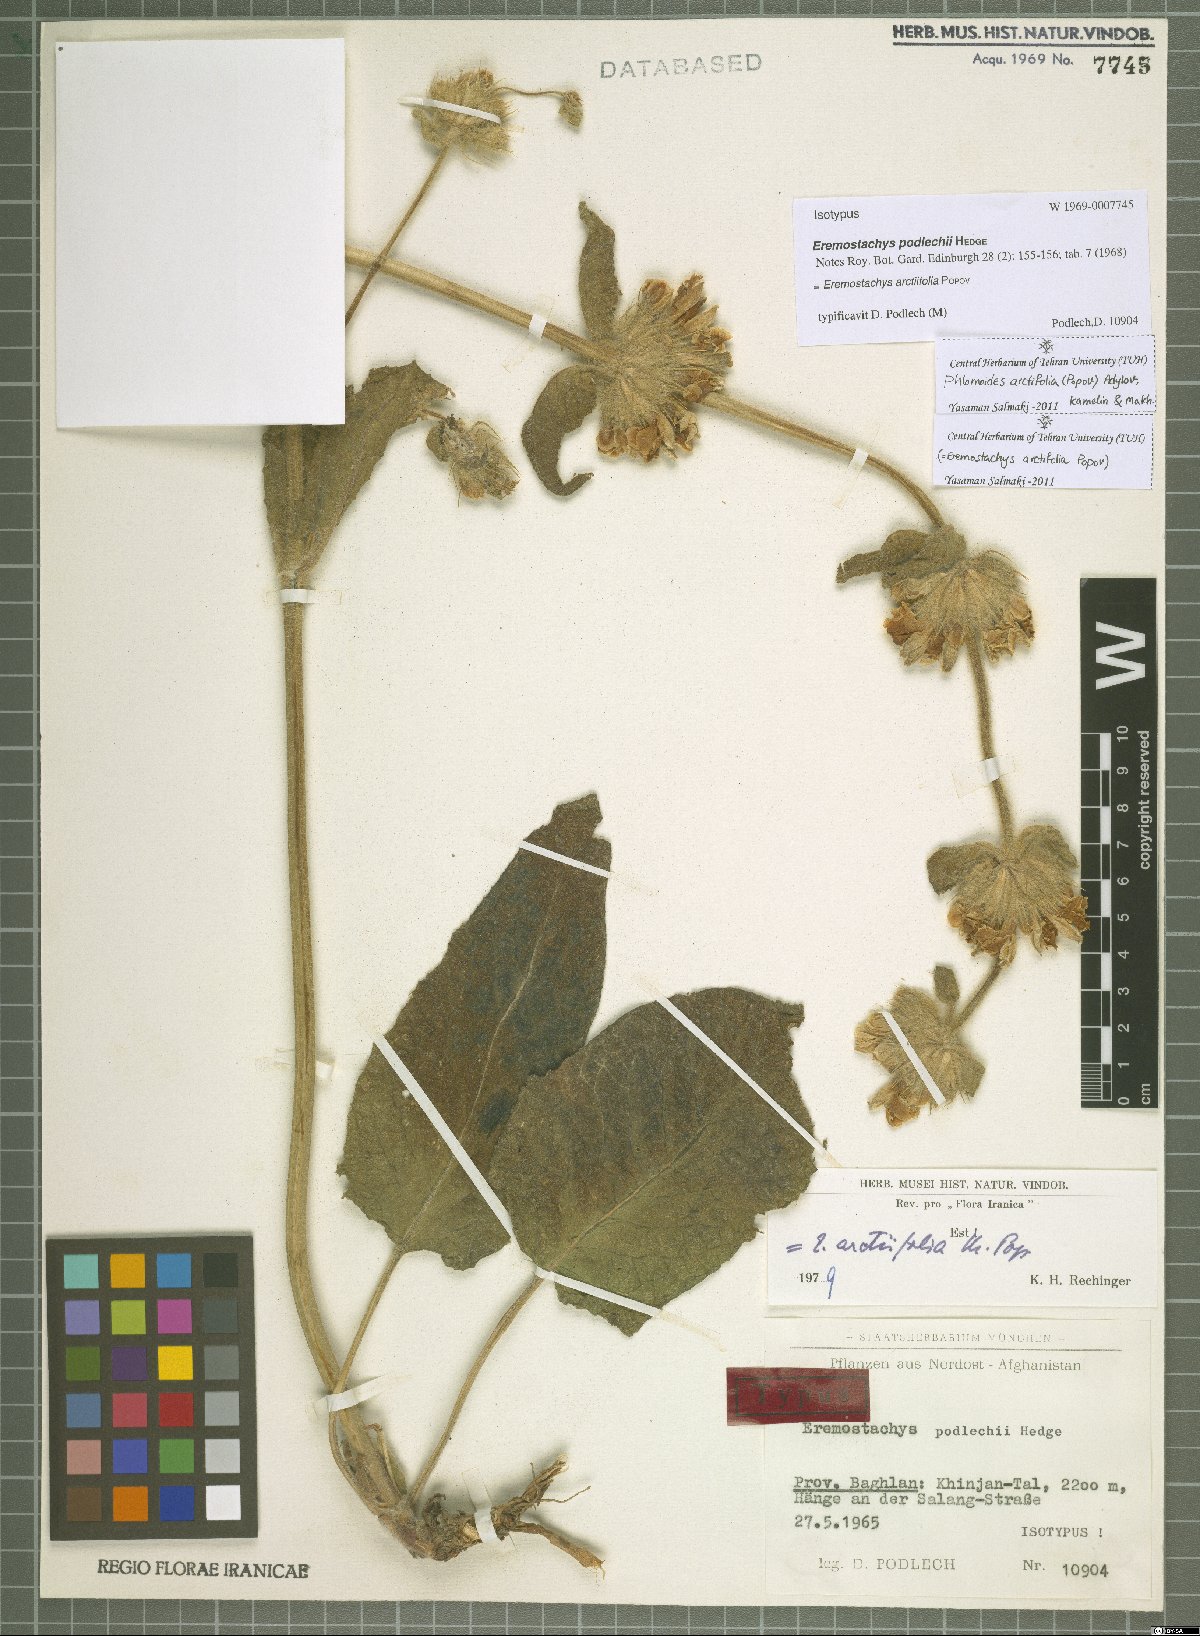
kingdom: Plantae
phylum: Tracheophyta
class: Magnoliopsida
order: Lamiales
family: Lamiaceae
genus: Phlomoides
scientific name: Phlomoides arctifolia
